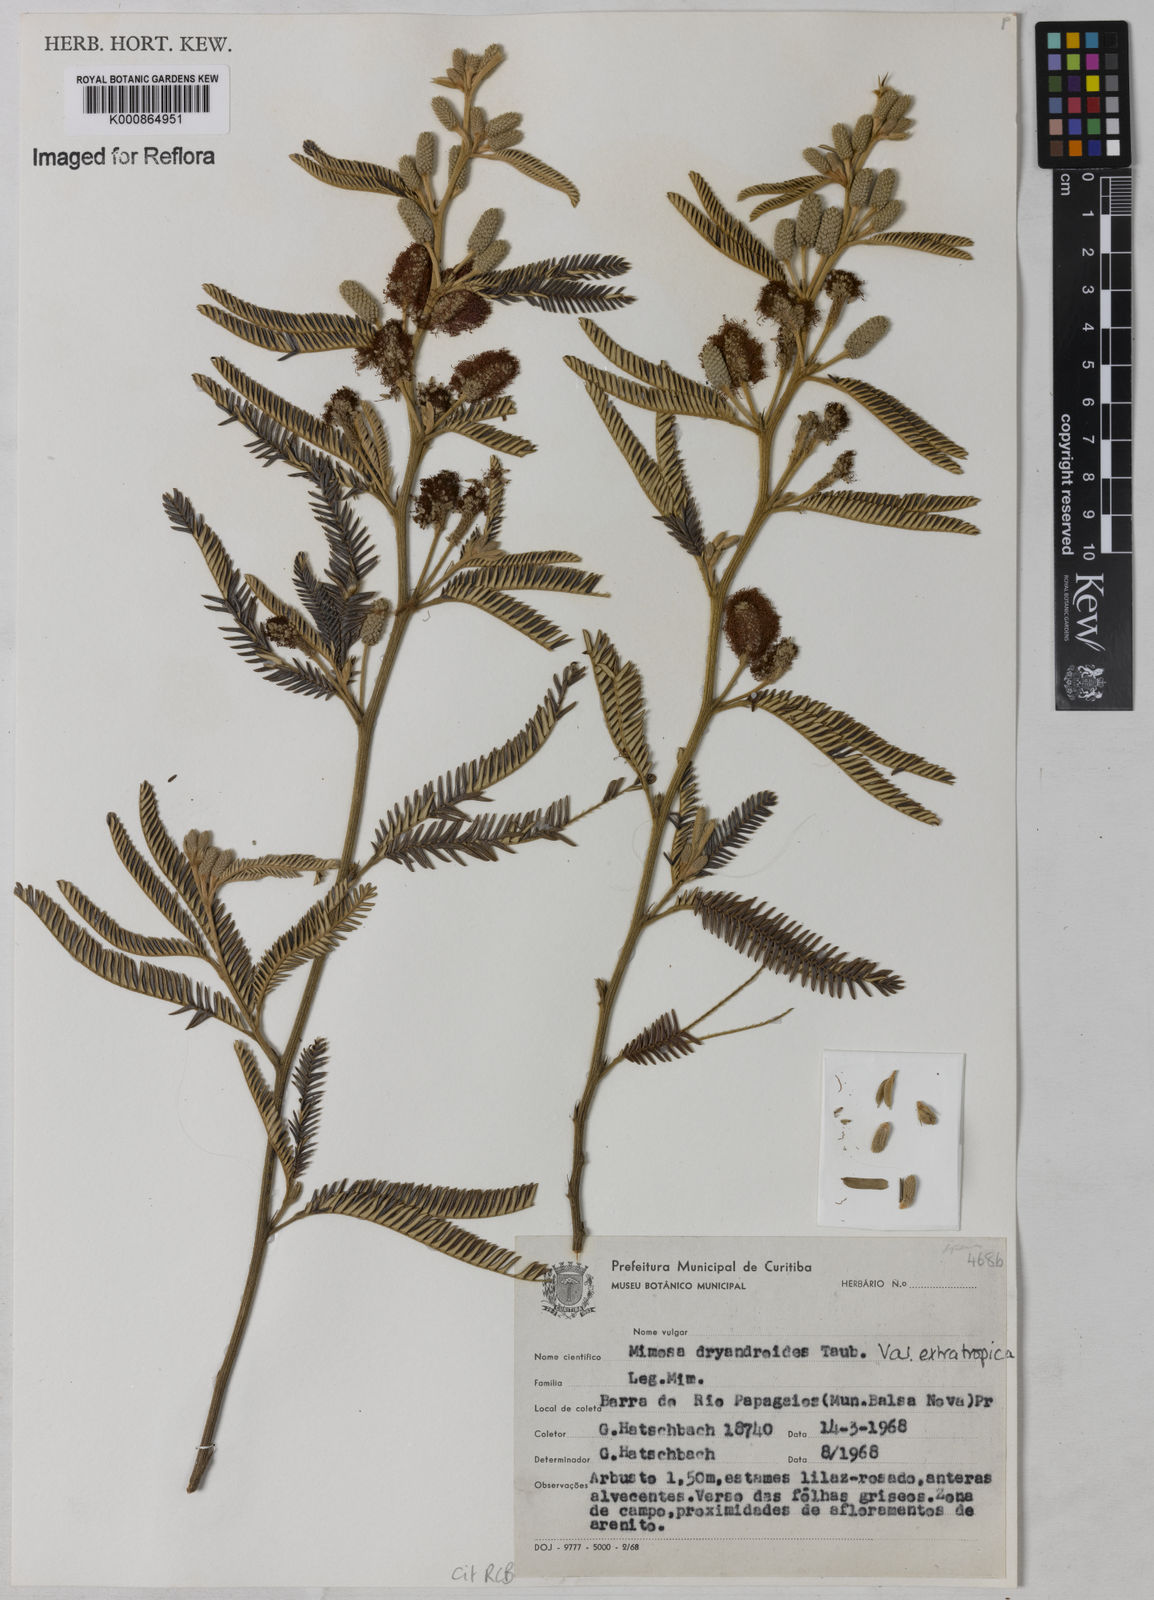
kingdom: Plantae
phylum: Tracheophyta
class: Magnoliopsida
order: Fabales
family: Fabaceae
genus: Mimosa
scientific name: Mimosa dryandroides
